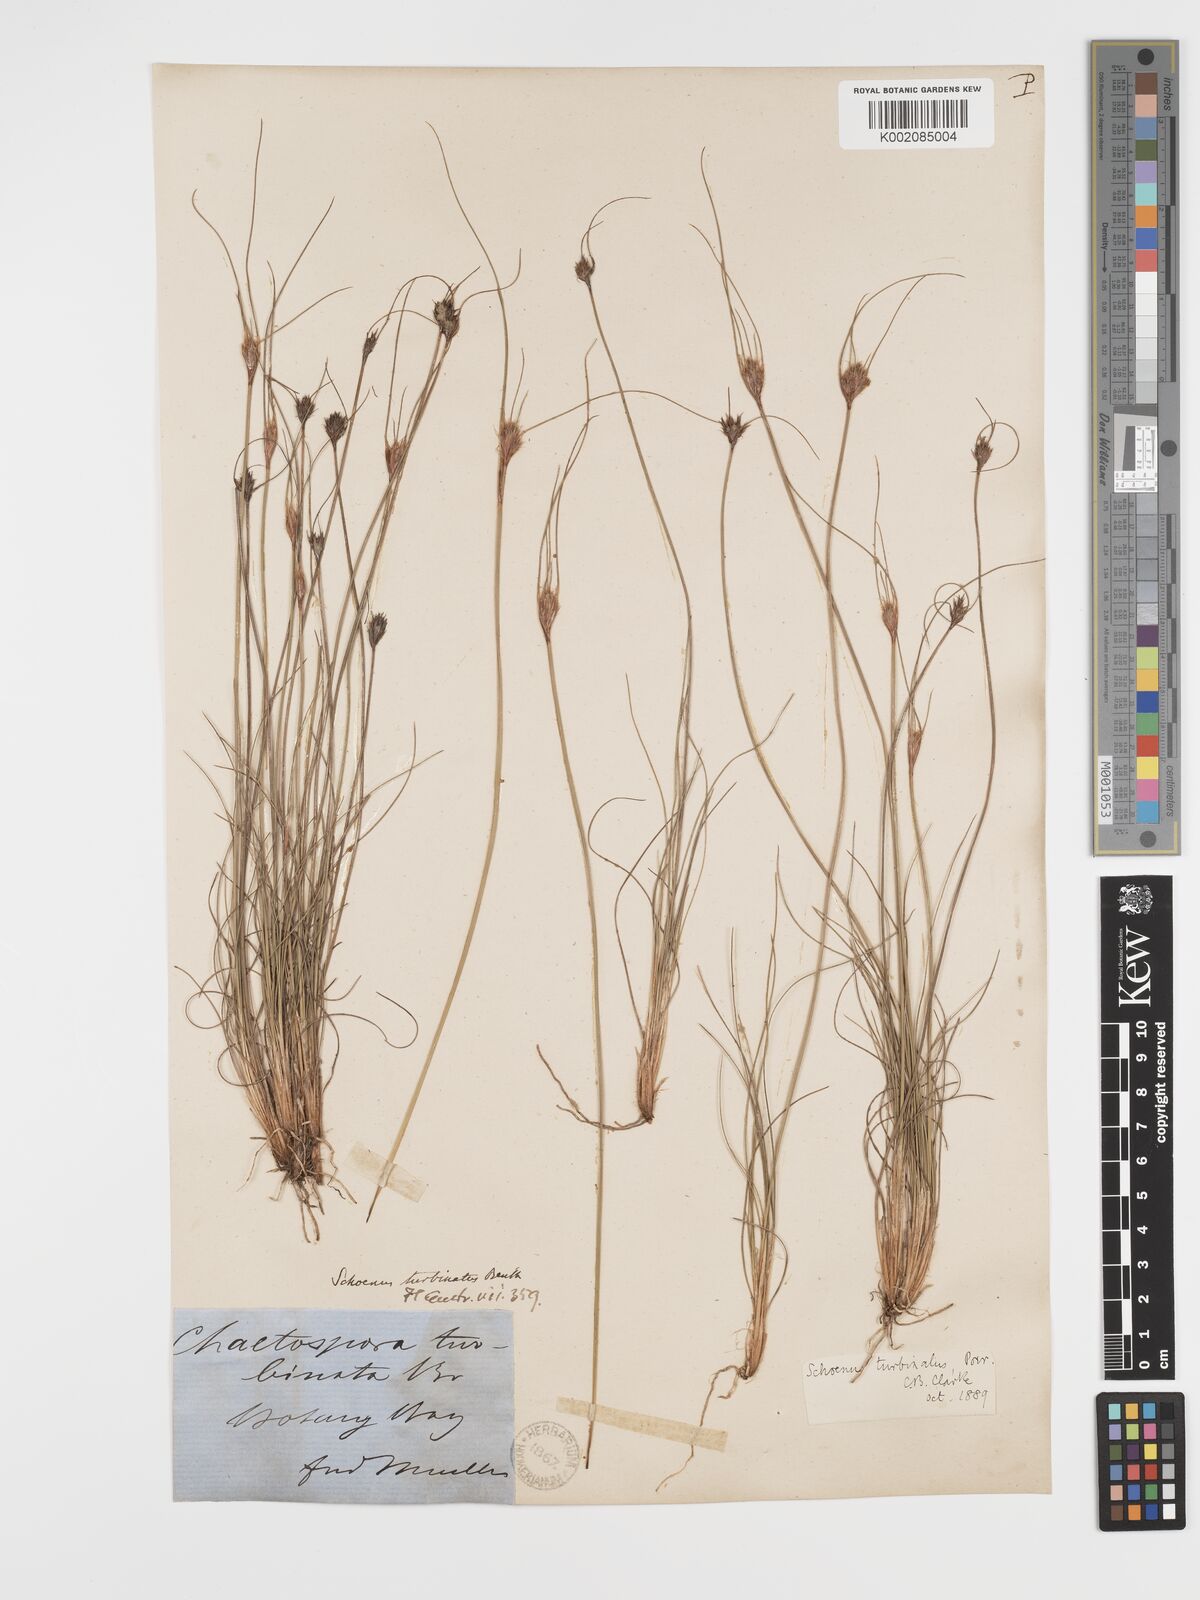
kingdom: Plantae
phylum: Tracheophyta
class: Liliopsida
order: Poales
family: Cyperaceae
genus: Schoenus
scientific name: Schoenus turbinatus
